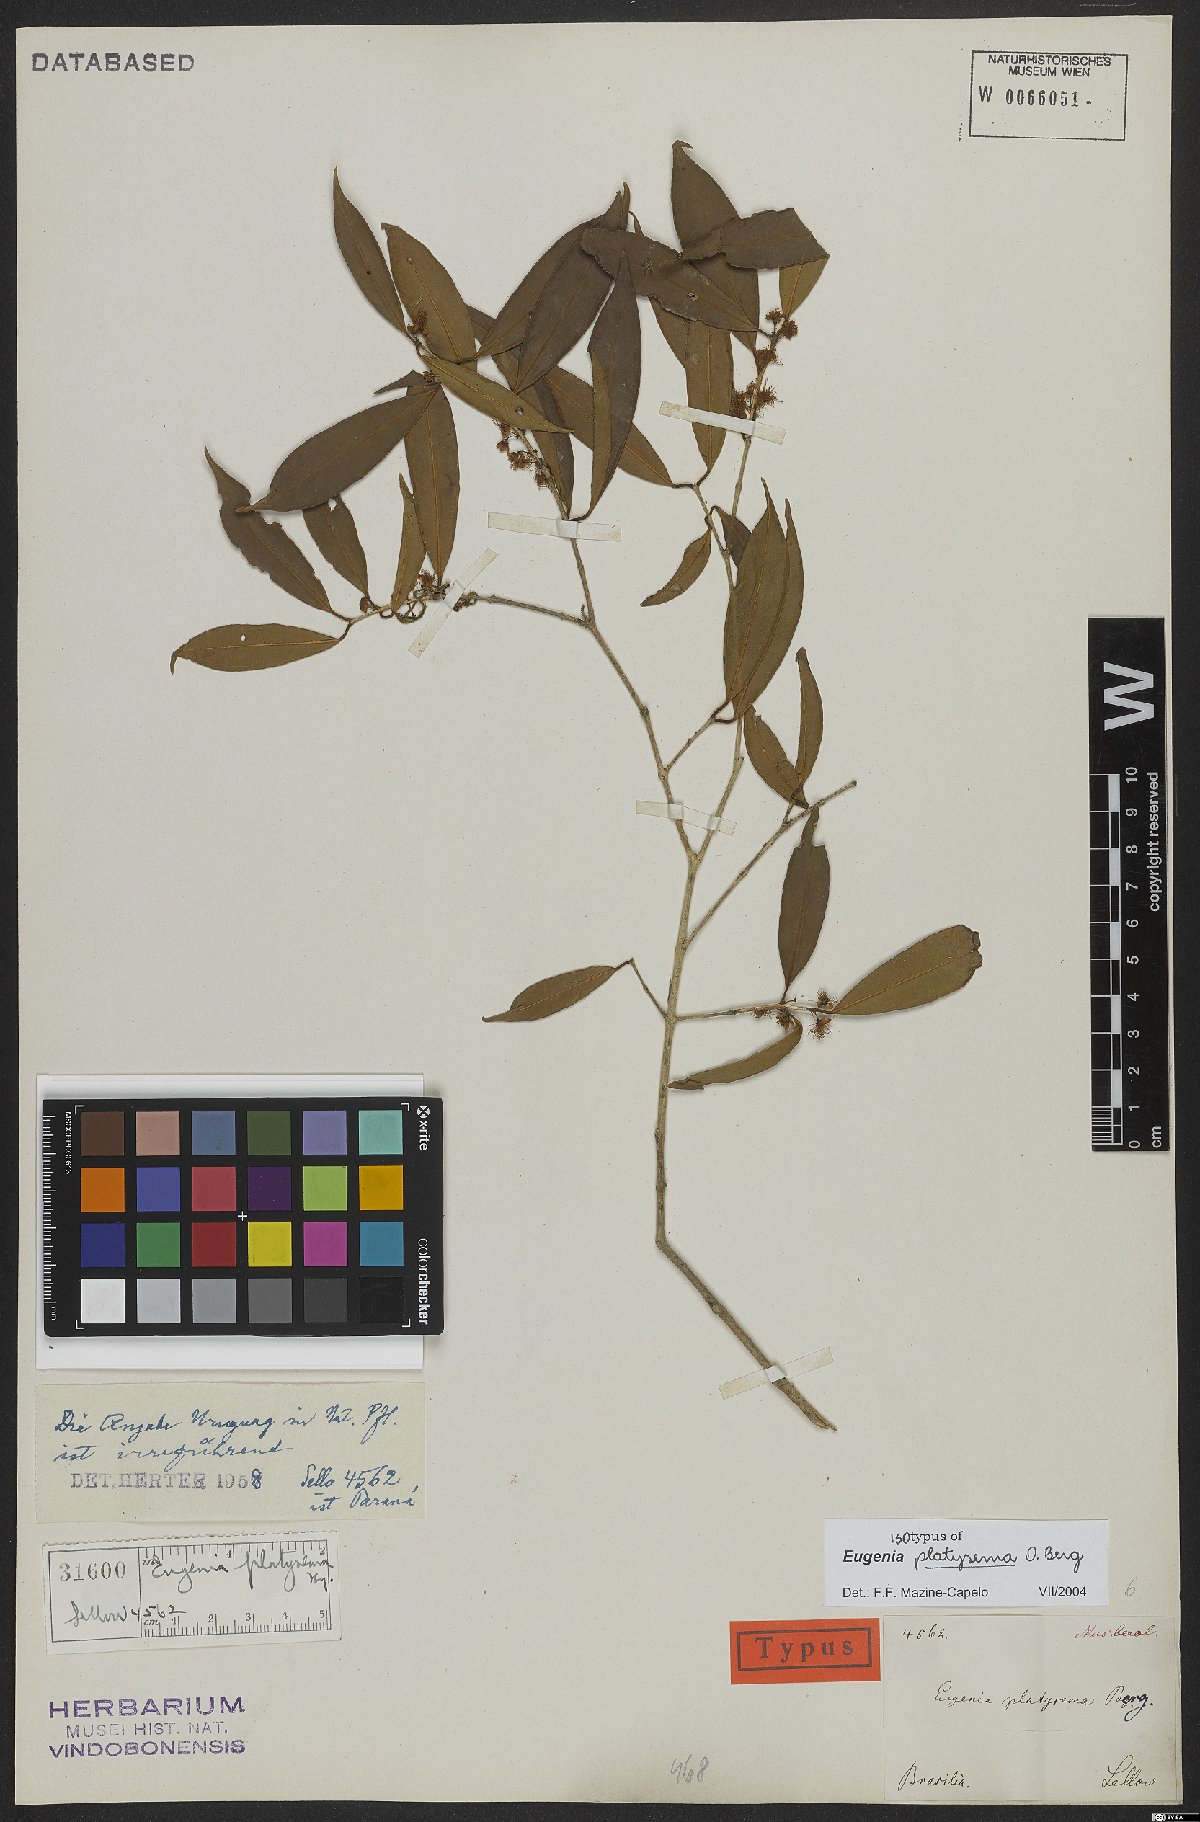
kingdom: Plantae
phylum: Tracheophyta
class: Magnoliopsida
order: Myrtales
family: Myrtaceae
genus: Eugenia
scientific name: Eugenia platysema
